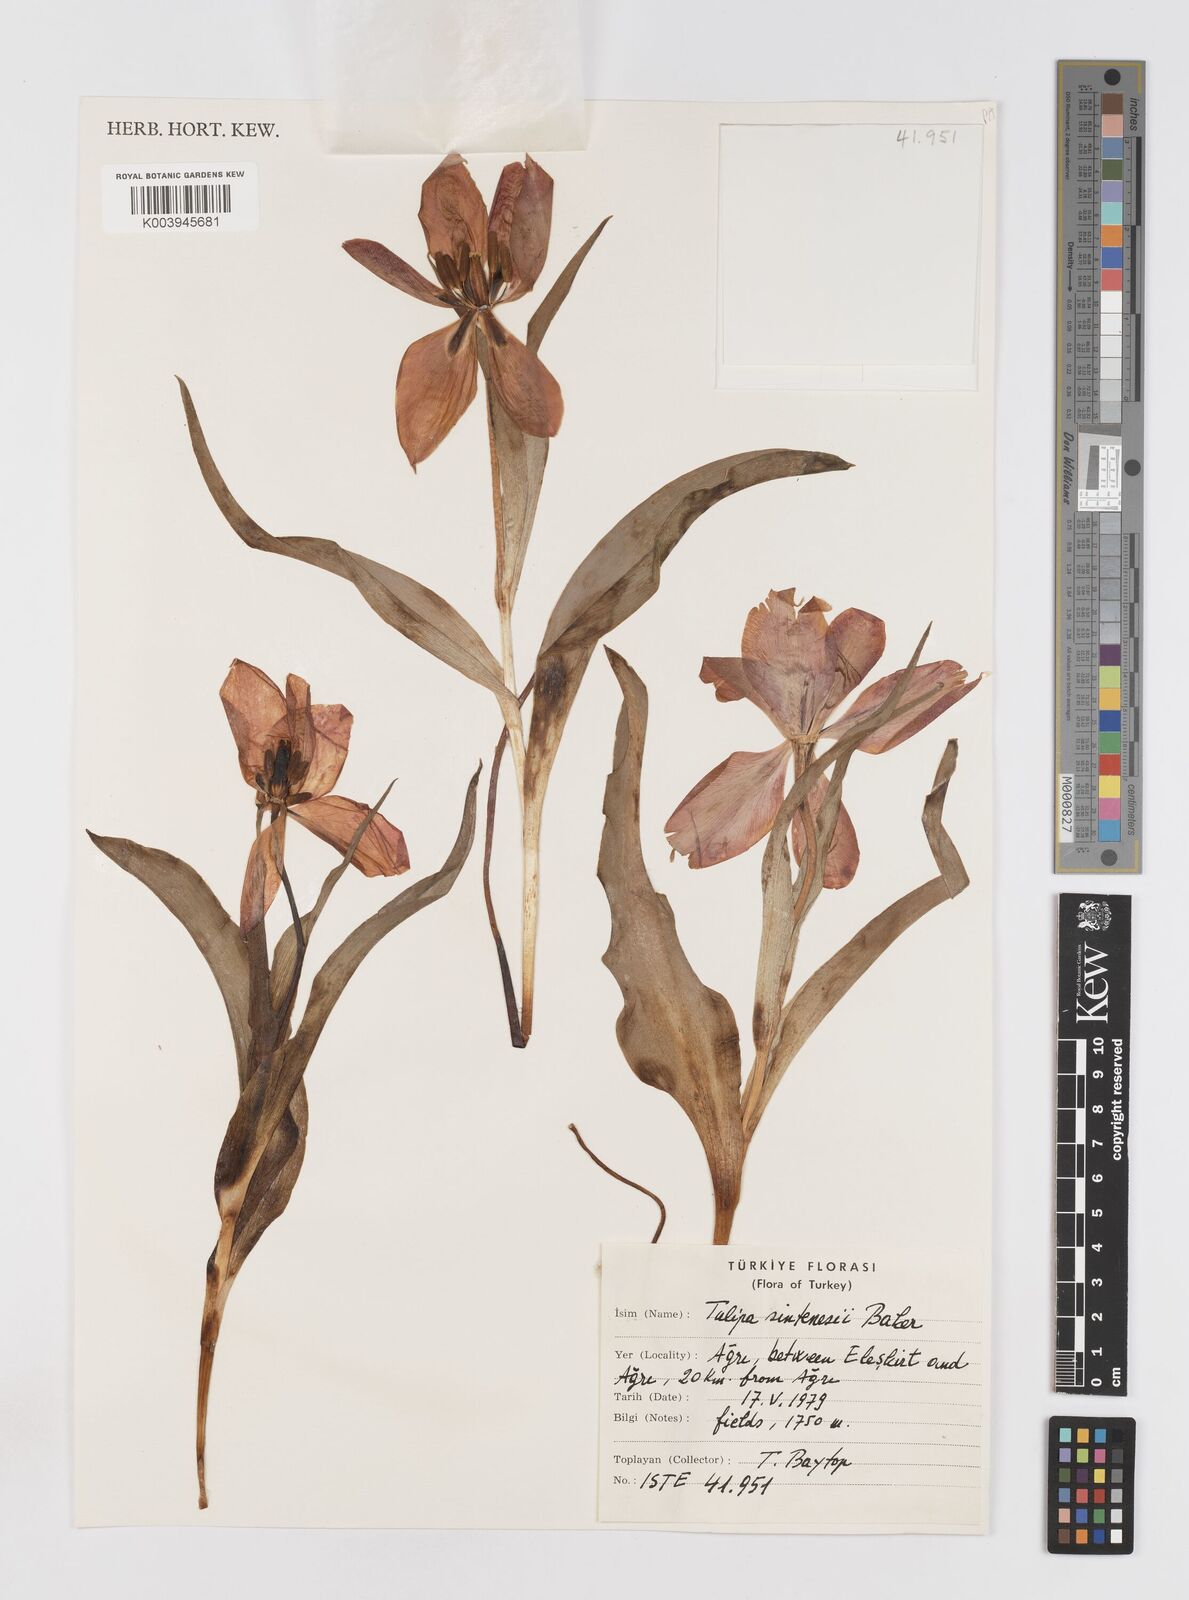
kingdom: Plantae
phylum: Tracheophyta
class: Liliopsida
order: Liliales
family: Liliaceae
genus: Tulipa
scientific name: Tulipa aleppensis
